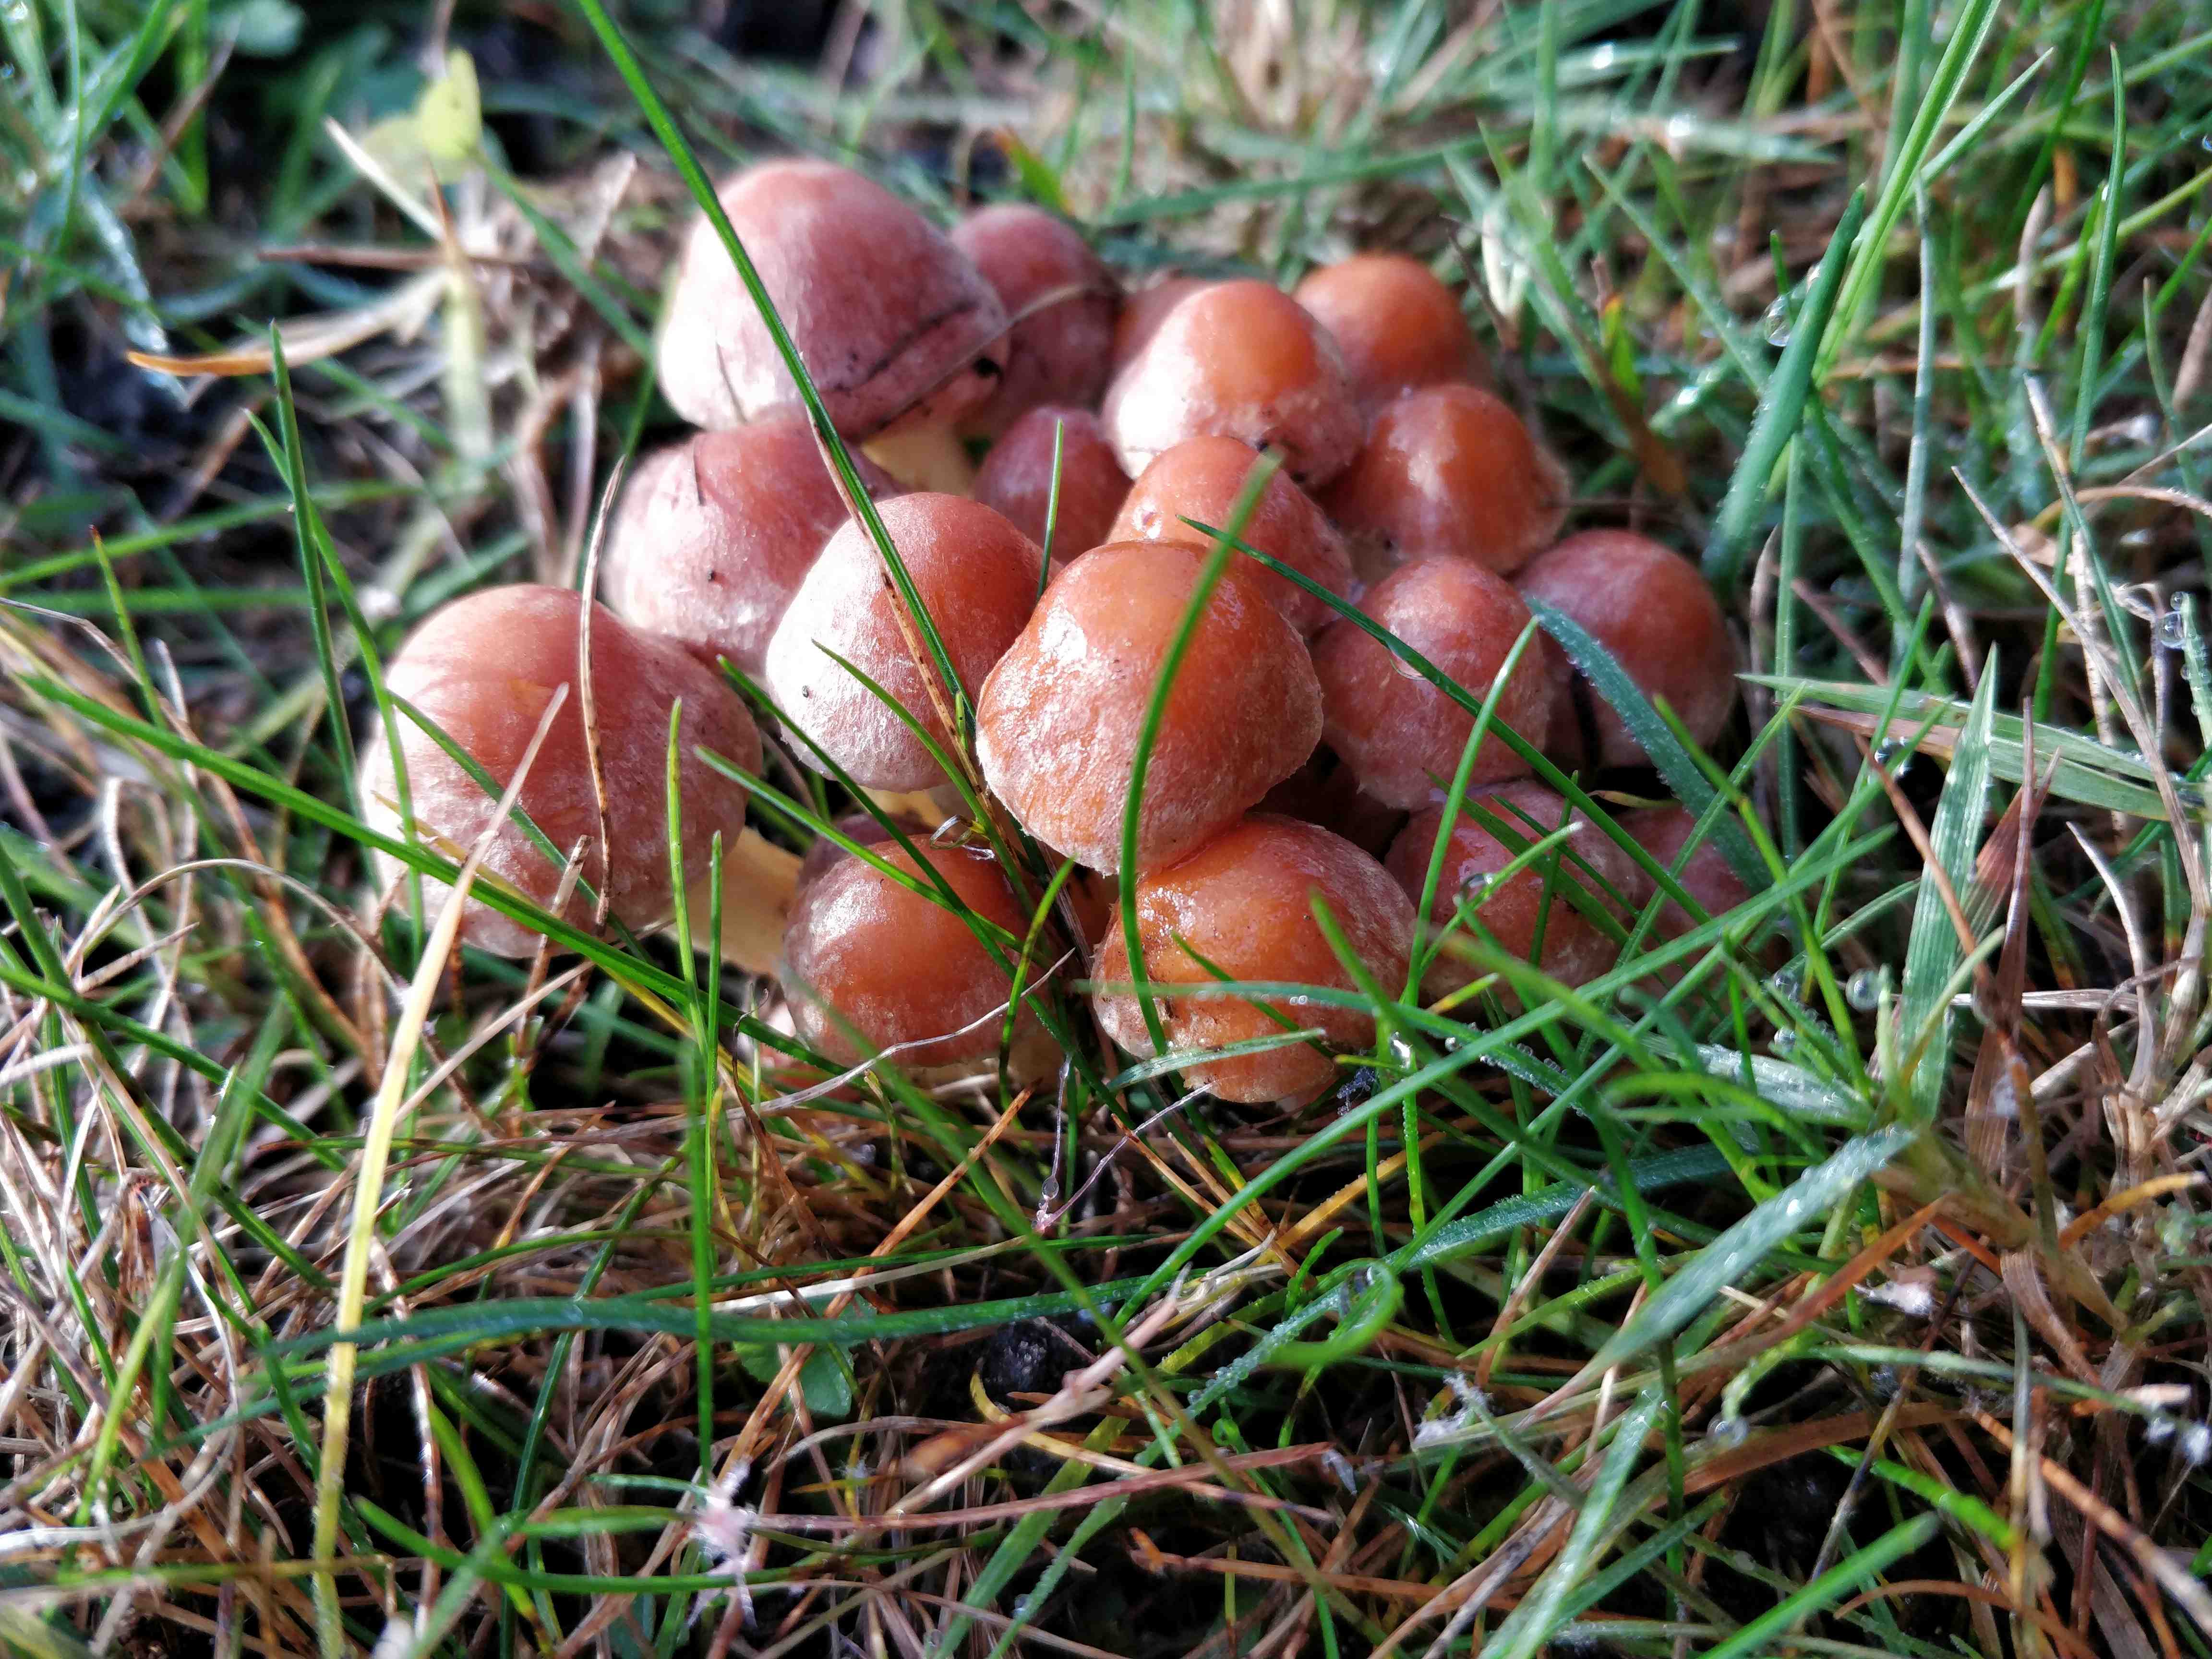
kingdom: Fungi
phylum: Basidiomycota
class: Agaricomycetes
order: Agaricales
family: Strophariaceae
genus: Hypholoma
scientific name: Hypholoma fasciculare
